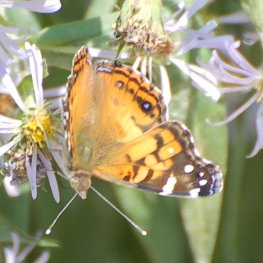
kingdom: Animalia
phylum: Arthropoda
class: Insecta
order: Lepidoptera
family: Nymphalidae
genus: Vanessa
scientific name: Vanessa virginiensis
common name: American Lady
